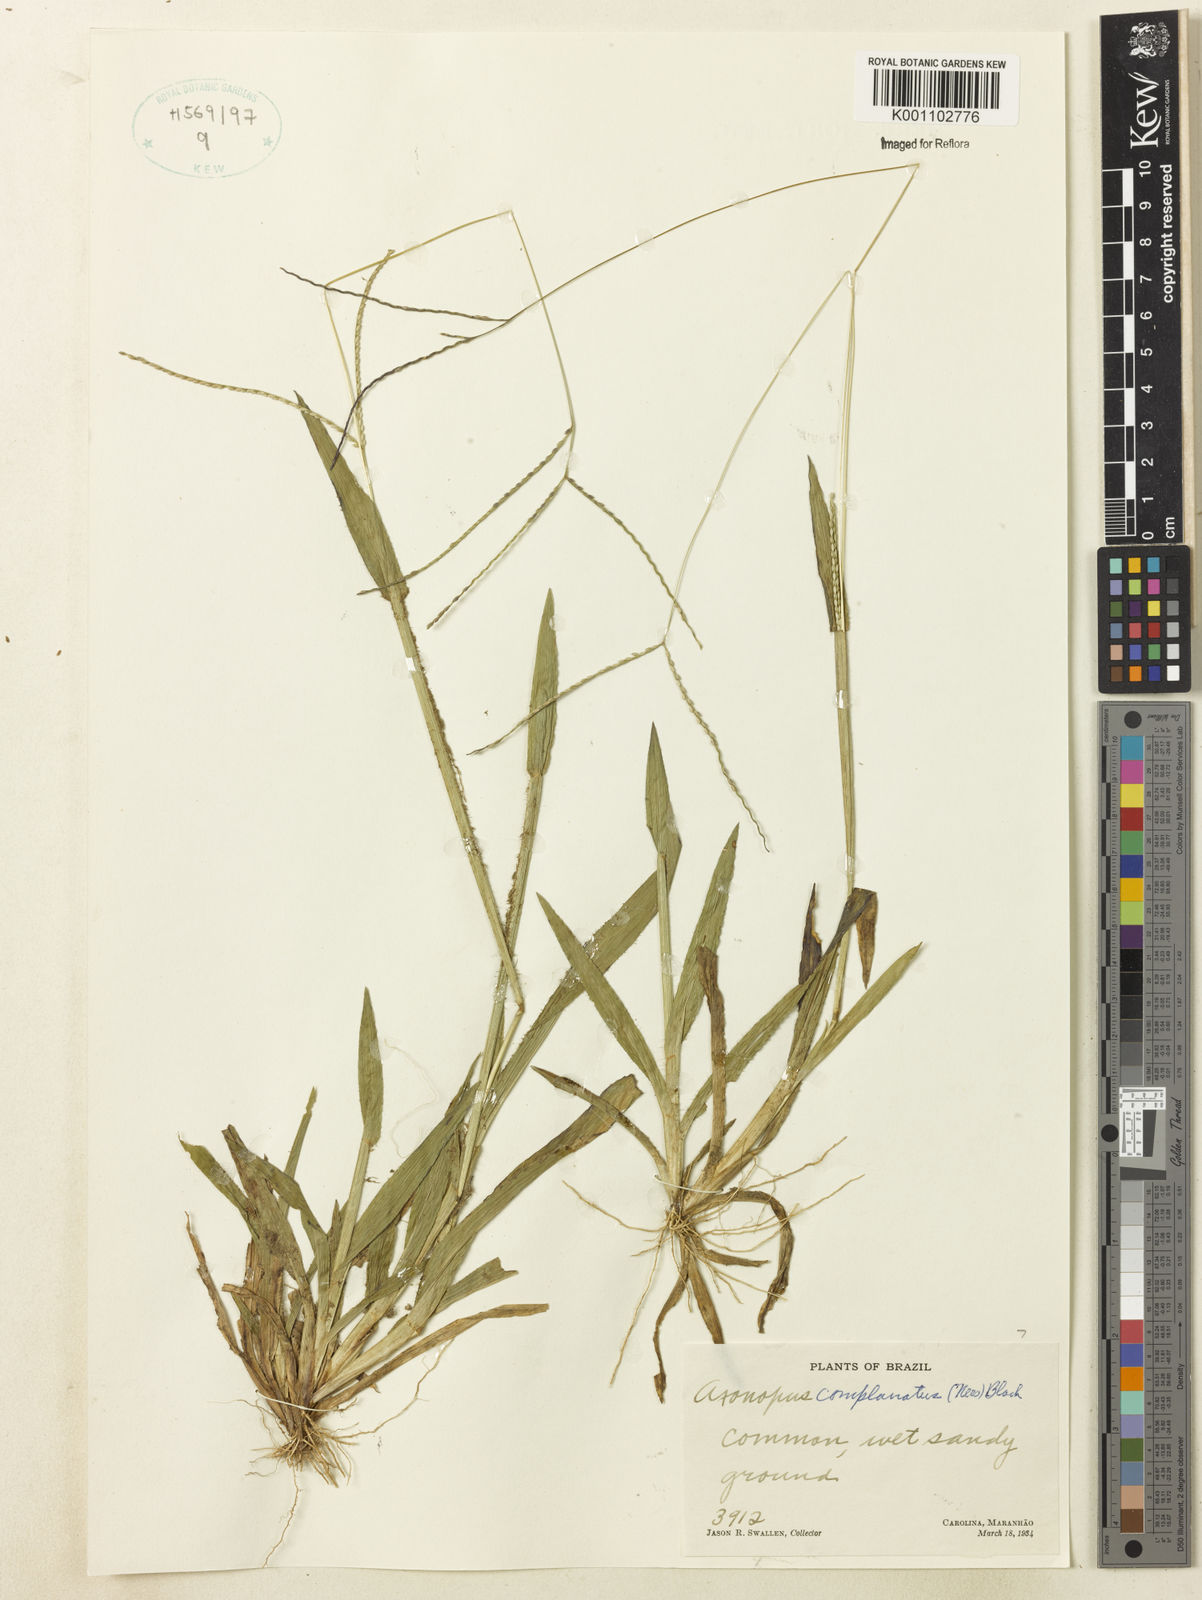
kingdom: Plantae
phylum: Tracheophyta
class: Liliopsida
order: Poales
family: Poaceae
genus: Axonopus
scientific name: Axonopus complanatus
